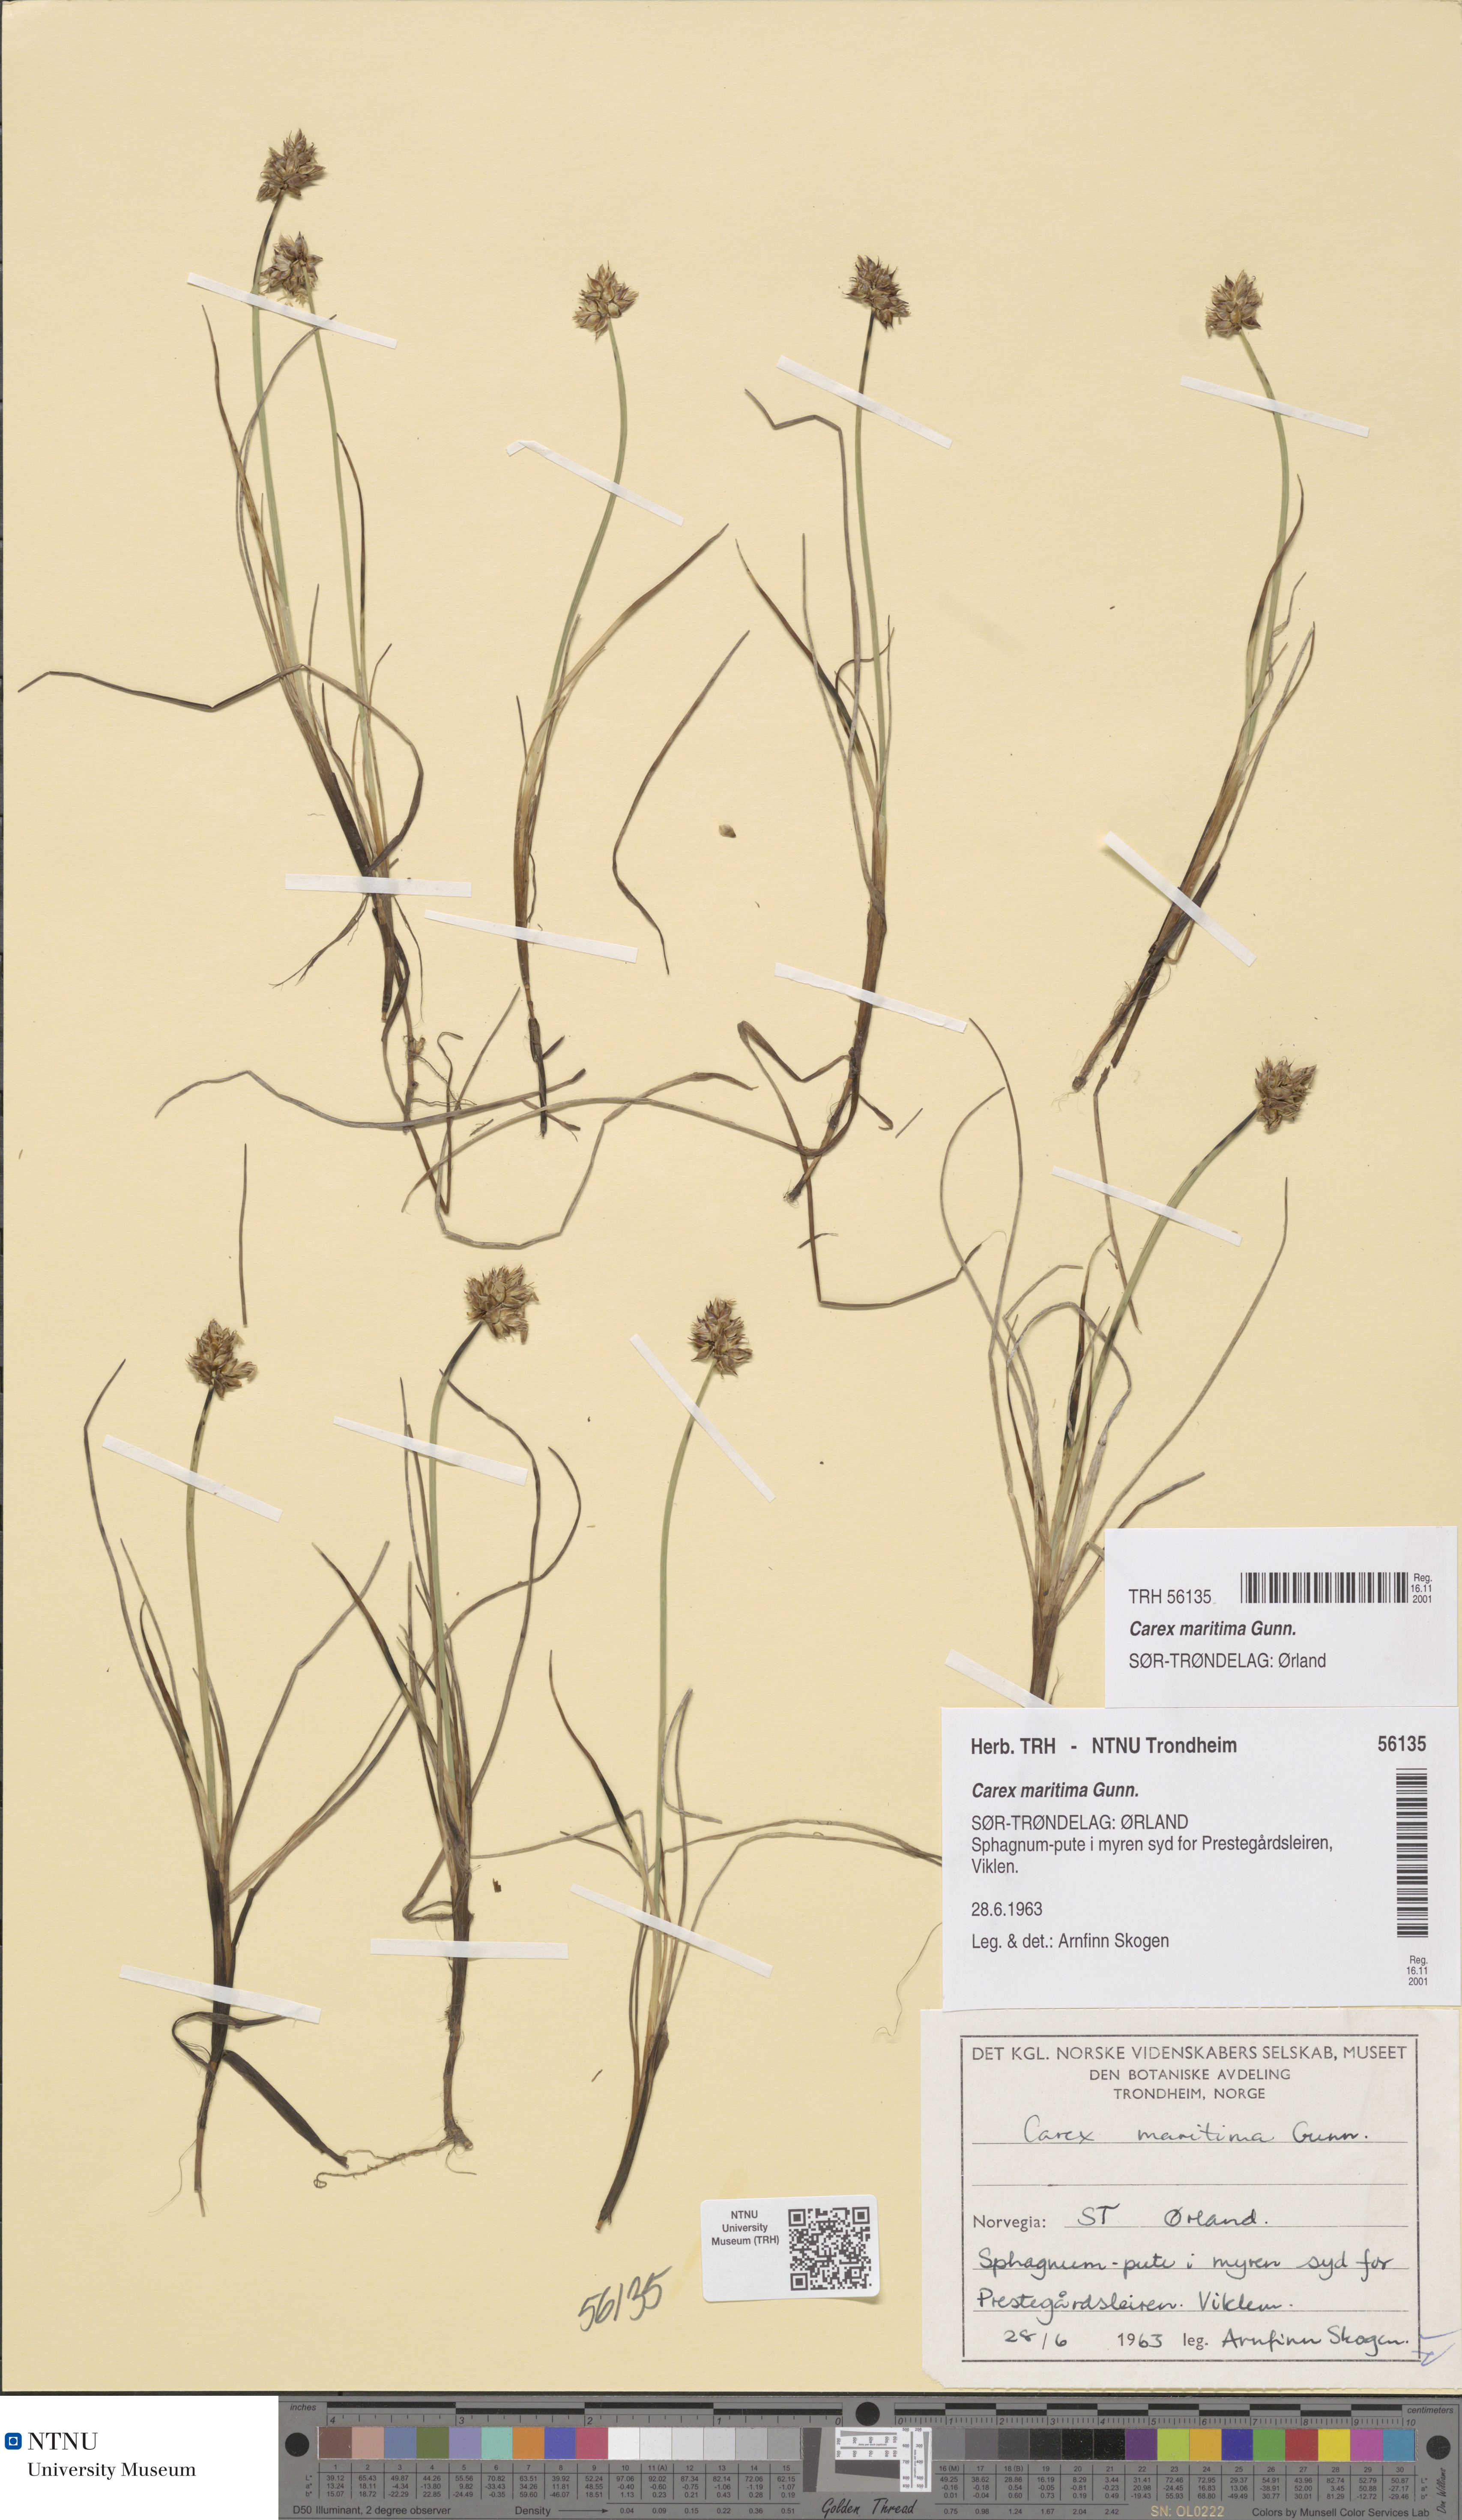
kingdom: Plantae
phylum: Tracheophyta
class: Liliopsida
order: Poales
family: Cyperaceae
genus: Carex
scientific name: Carex maritima
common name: Curved sedge
